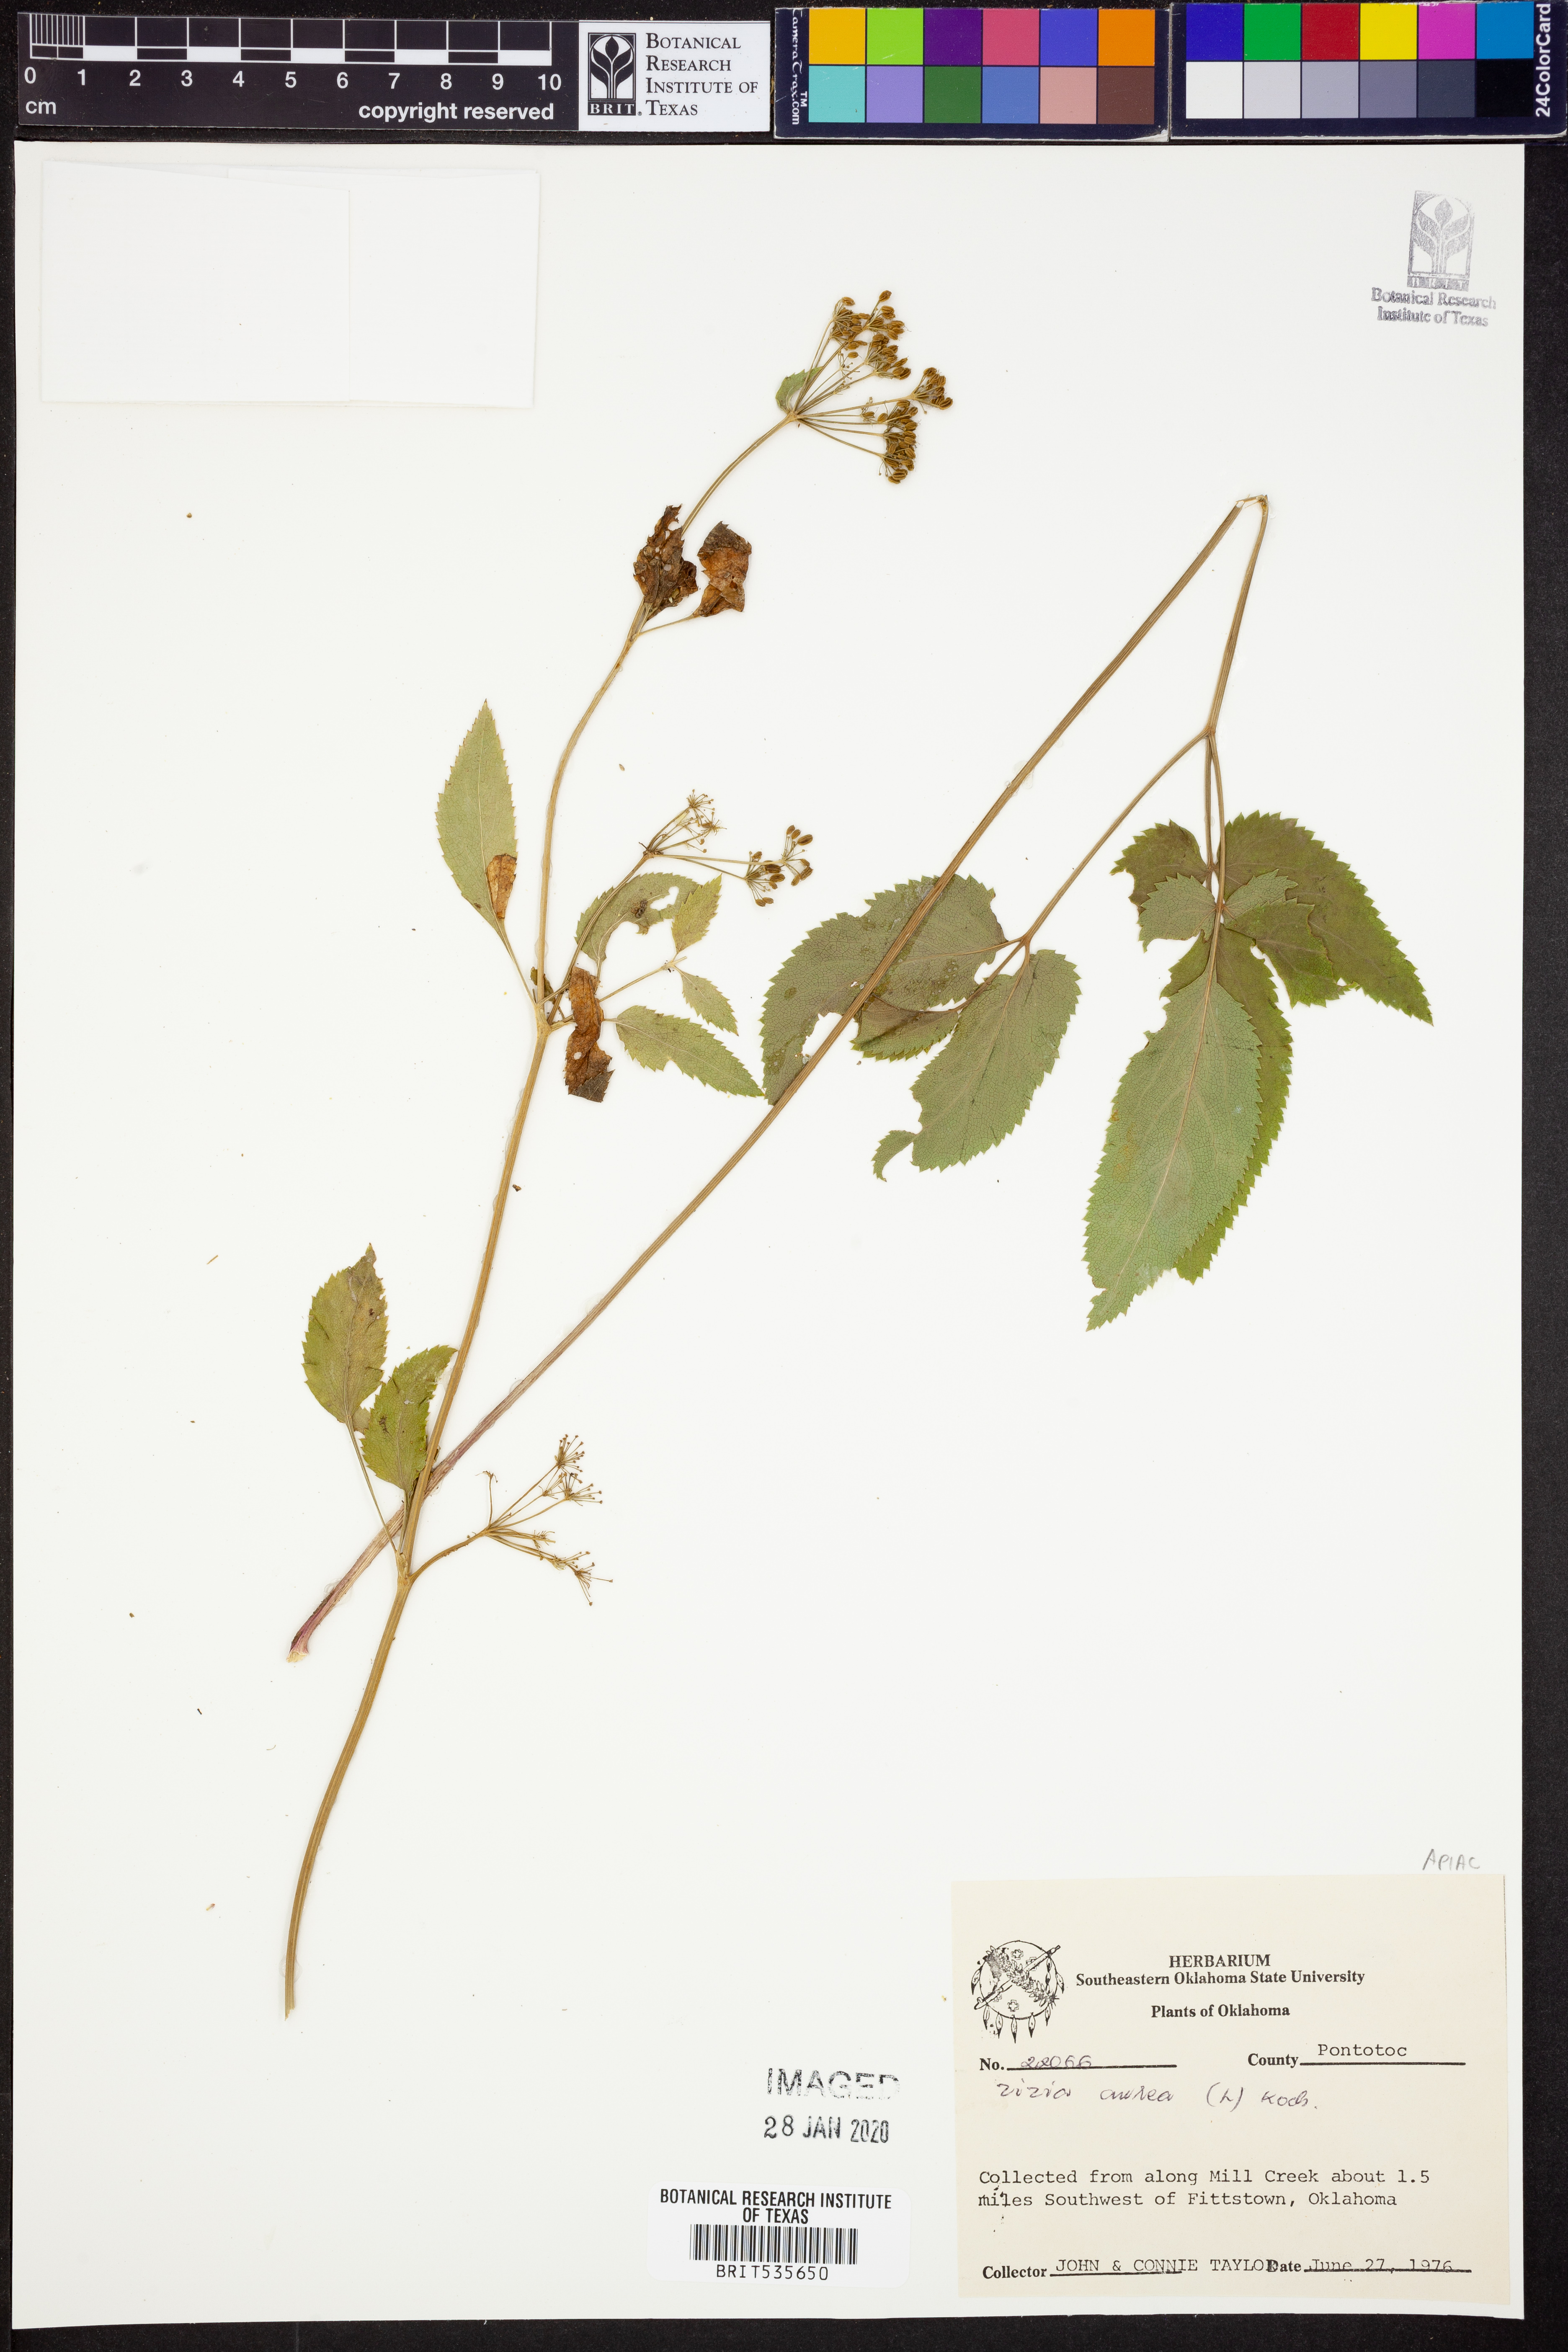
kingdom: Plantae
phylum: Tracheophyta
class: Magnoliopsida
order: Apiales
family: Apiaceae
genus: Zizia
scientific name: Zizia aurea
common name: Golden alexanders
